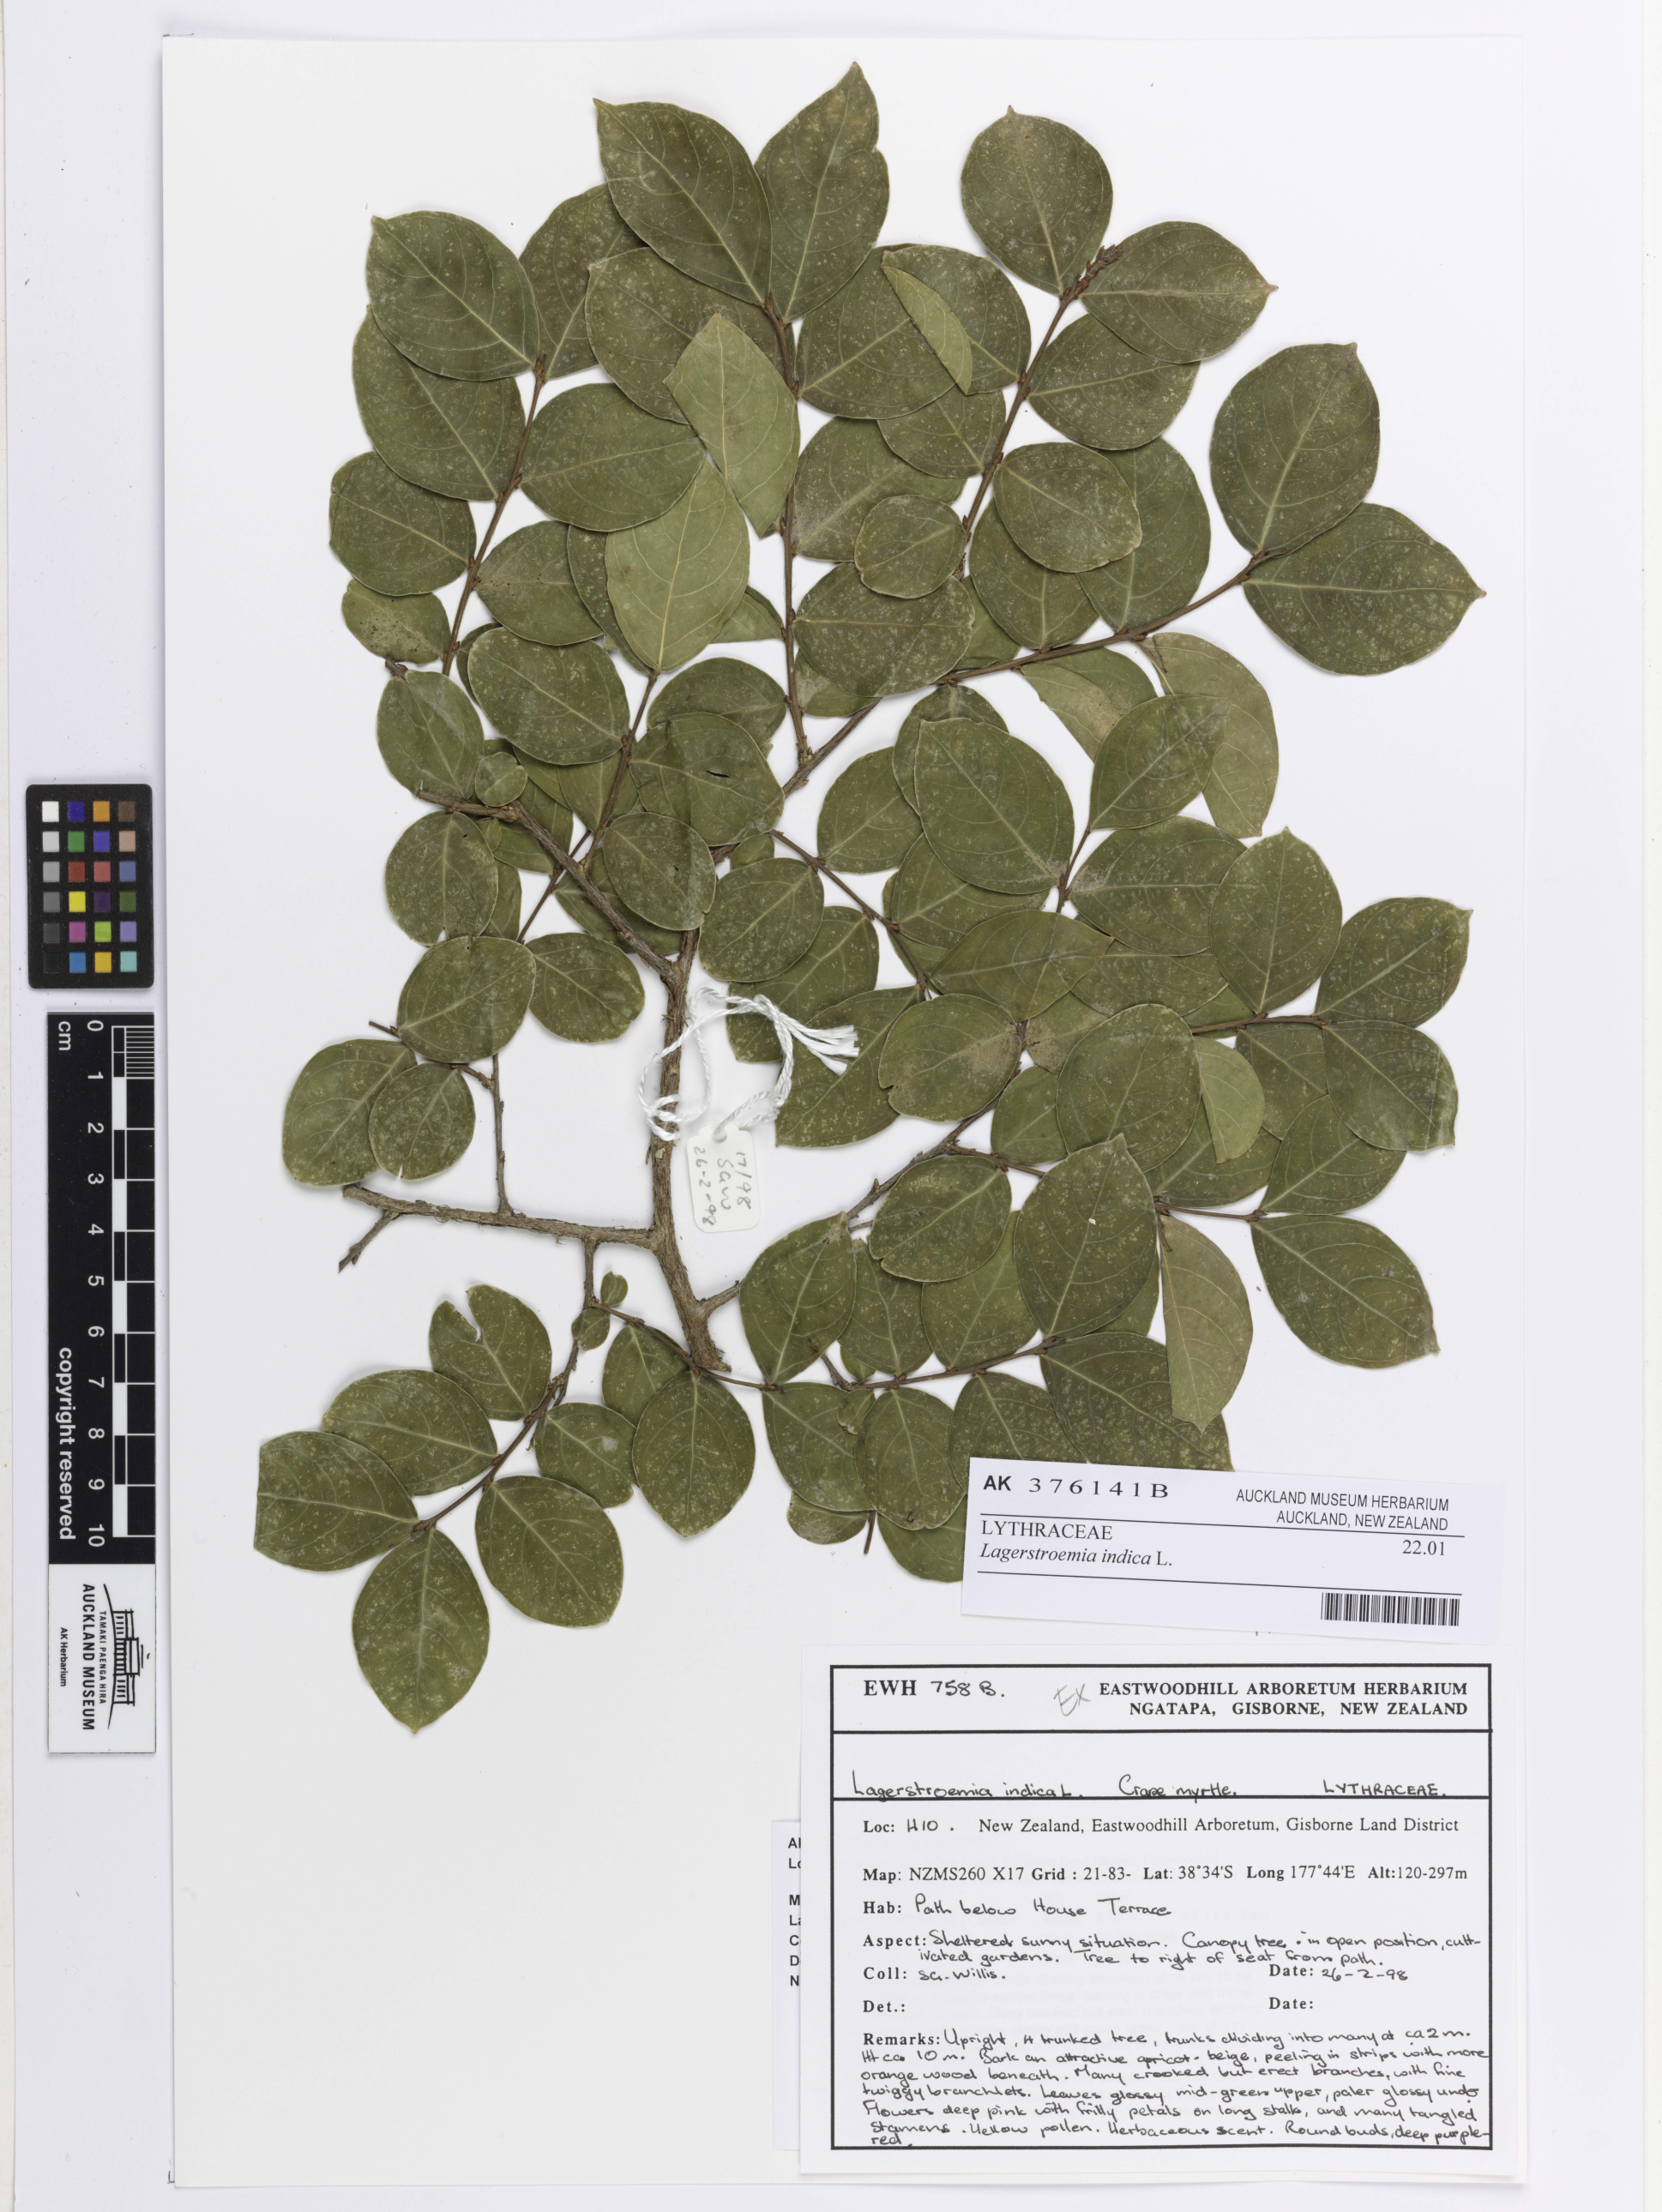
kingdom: Plantae
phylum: Tracheophyta
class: Magnoliopsida
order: Myrtales
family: Lythraceae
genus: Lagerstroemia
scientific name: Lagerstroemia indica
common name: Crape-myrtle
